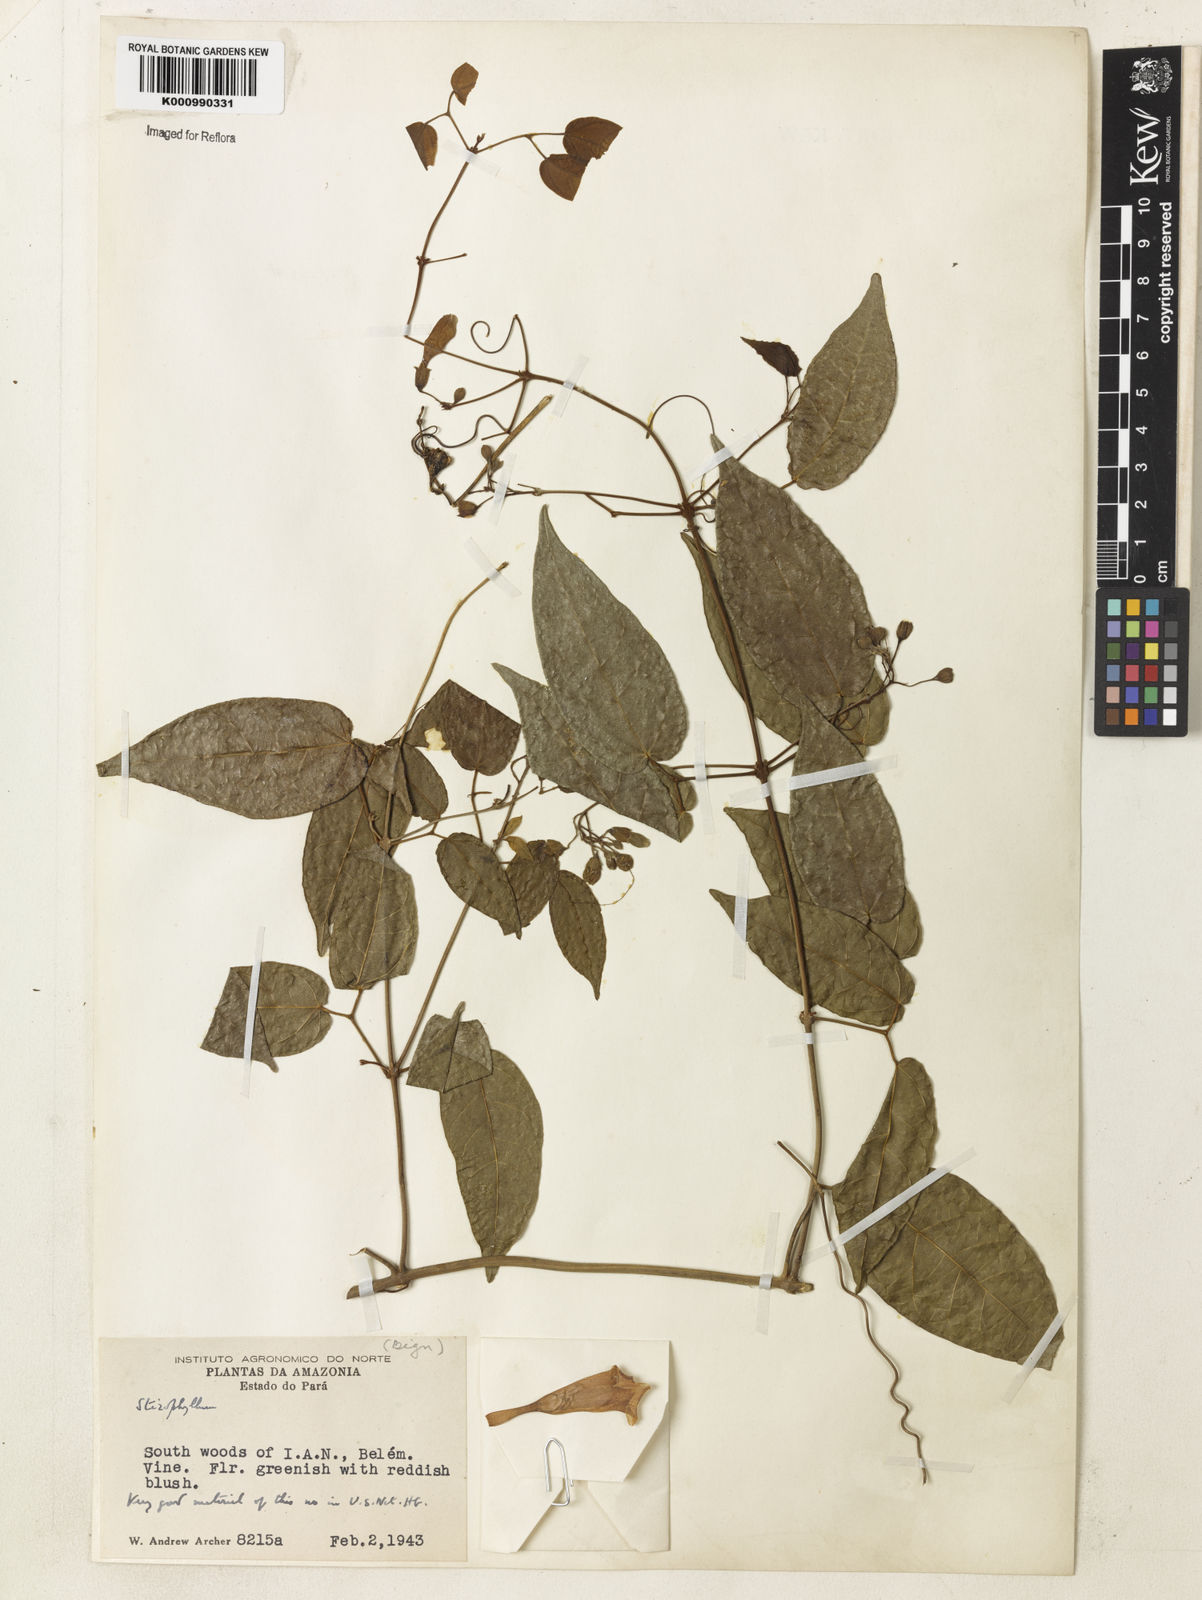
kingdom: Plantae
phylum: Tracheophyta
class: Magnoliopsida
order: Lamiales
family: Bignoniaceae
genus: Stizophyllum
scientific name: Stizophyllum
